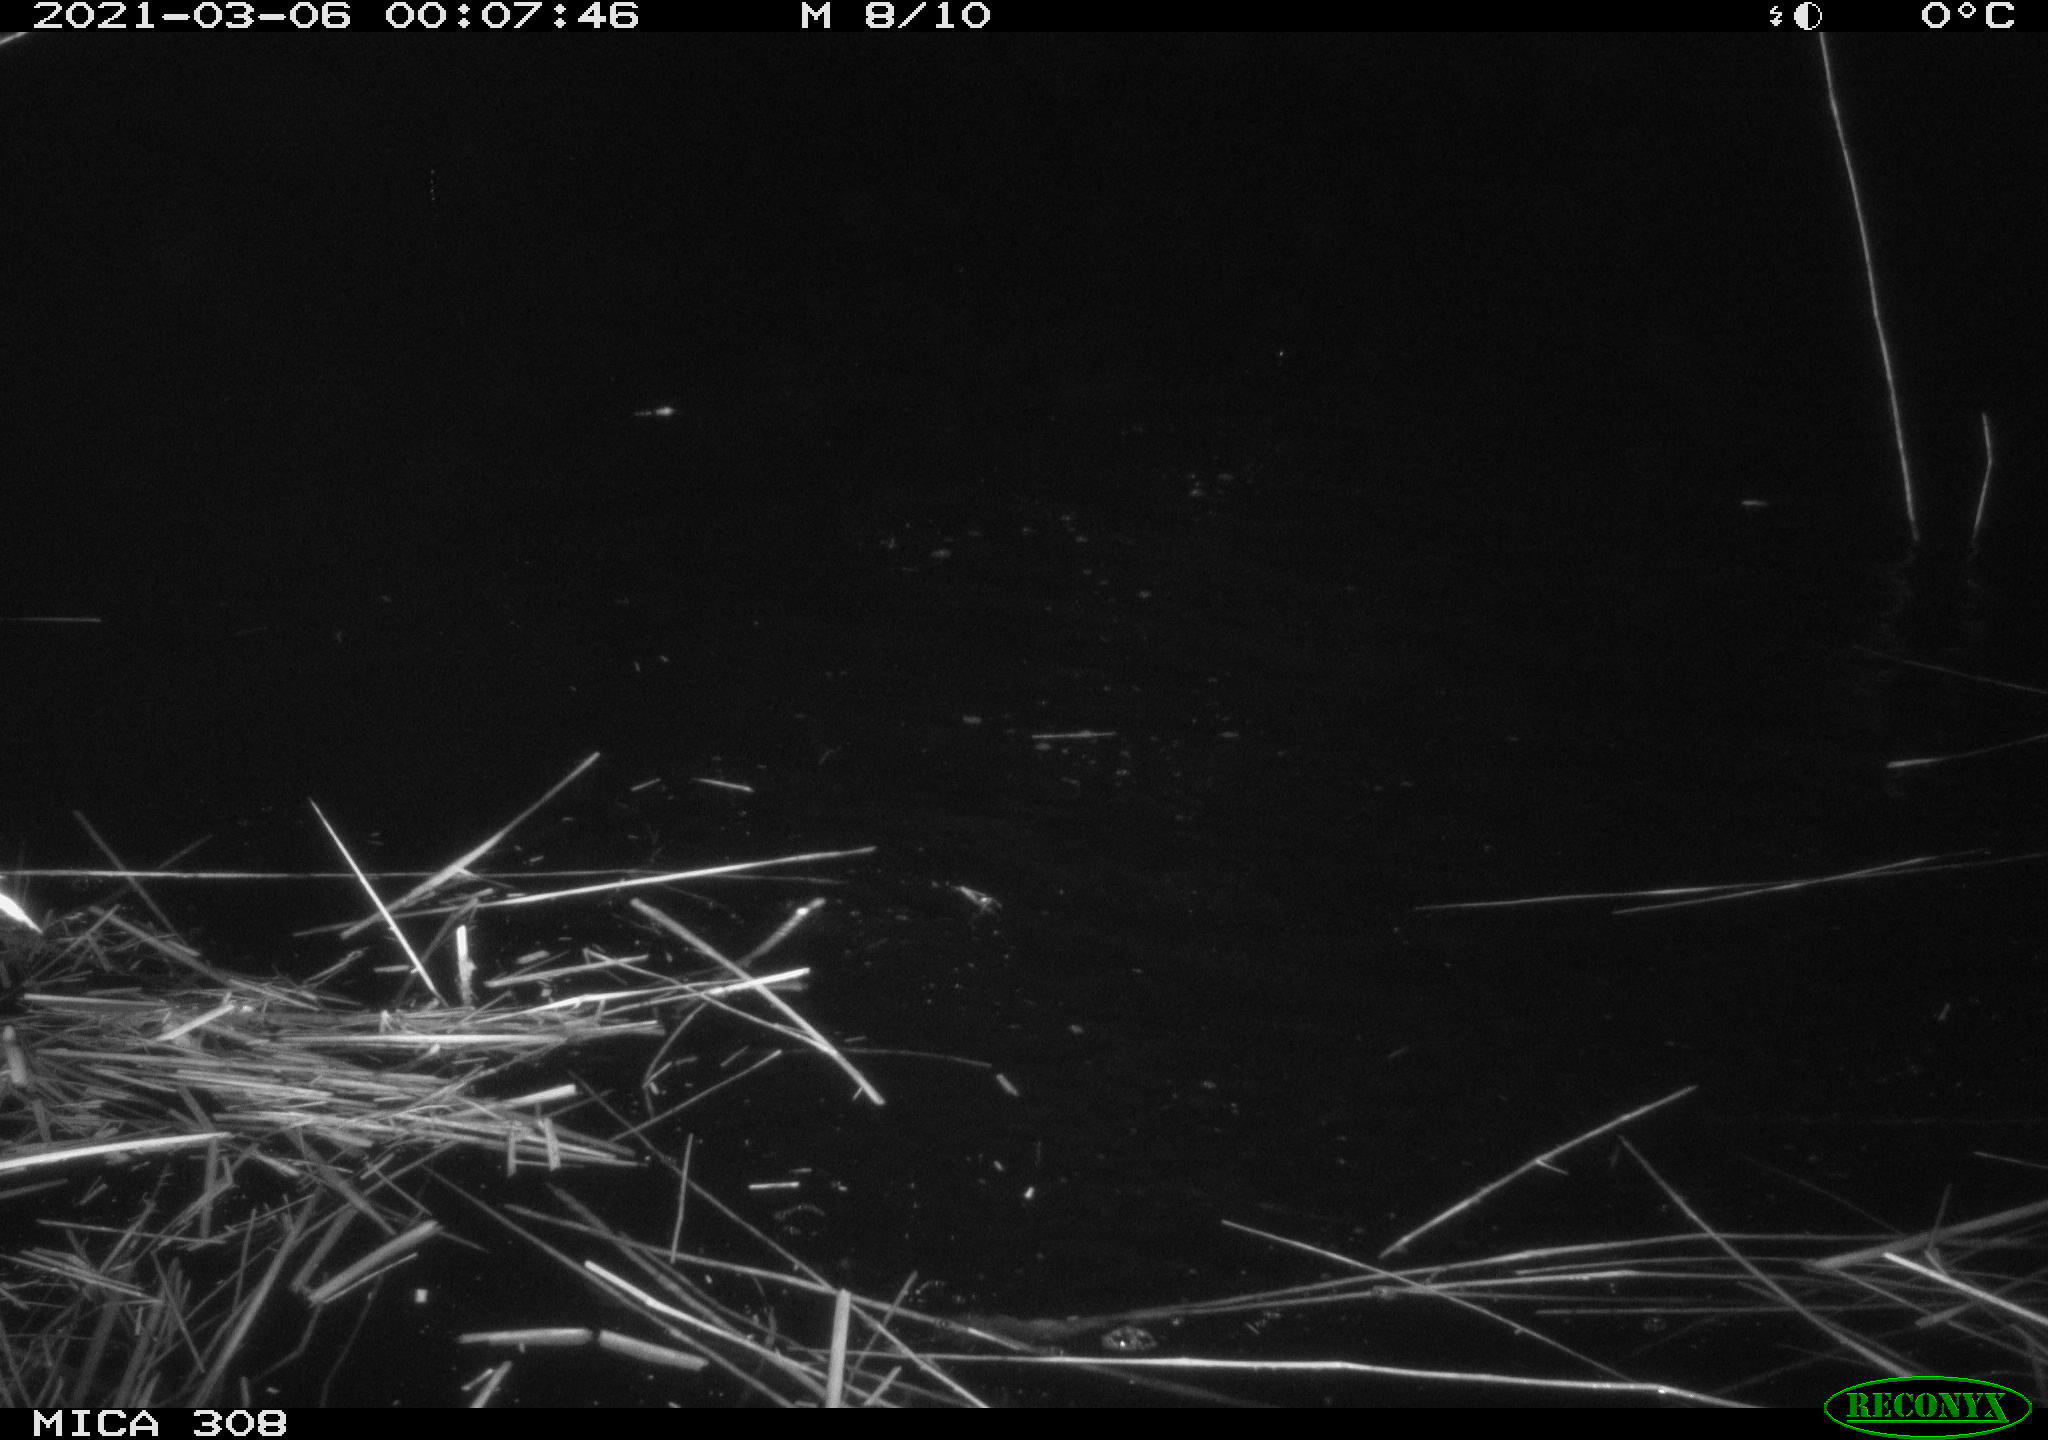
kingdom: Animalia
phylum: Chordata
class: Aves
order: Anseriformes
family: Anatidae
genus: Anas
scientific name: Anas platyrhynchos
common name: Mallard
